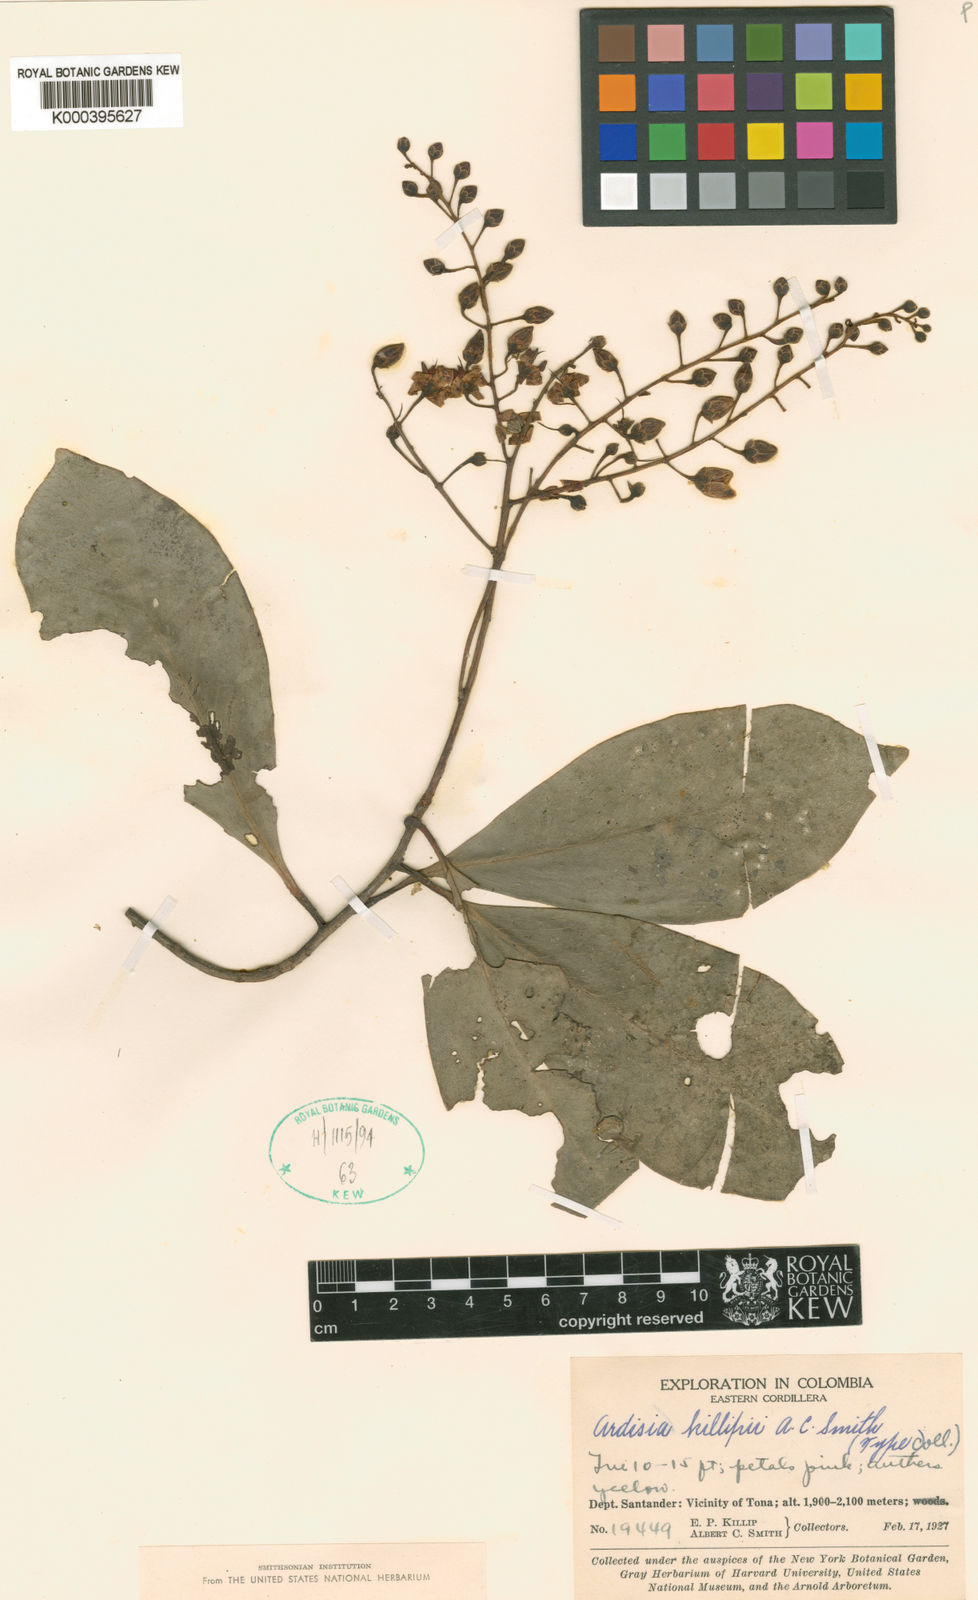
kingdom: Plantae
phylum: Tracheophyta
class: Magnoliopsida
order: Ericales
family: Primulaceae
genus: Ardisia
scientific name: Ardisia killipii
